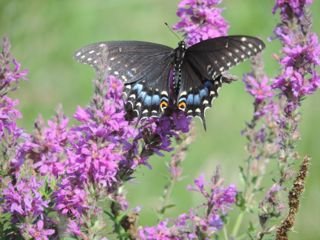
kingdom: Animalia
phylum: Arthropoda
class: Insecta
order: Lepidoptera
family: Papilionidae
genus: Papilio
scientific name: Papilio polyxenes
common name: Black Swallowtail
